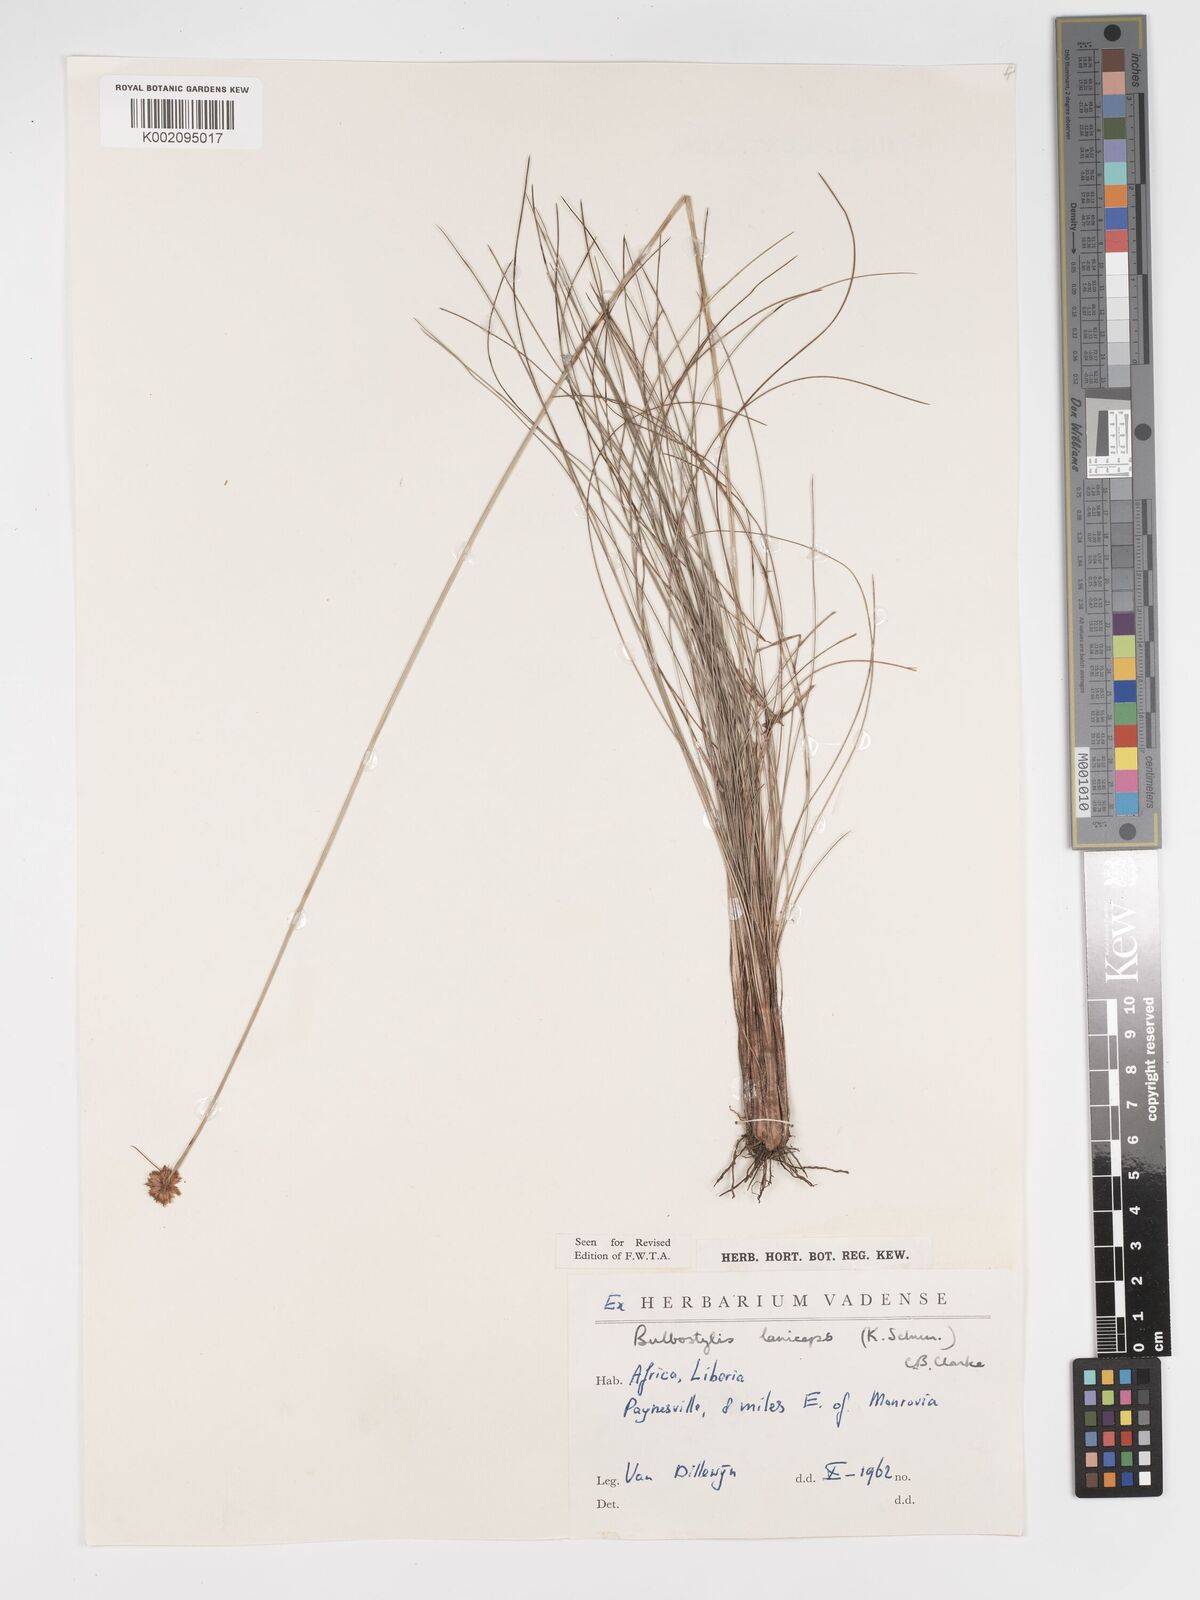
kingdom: Plantae
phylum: Tracheophyta
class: Liliopsida
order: Poales
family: Cyperaceae
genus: Bulbostylis
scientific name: Bulbostylis laniceps
